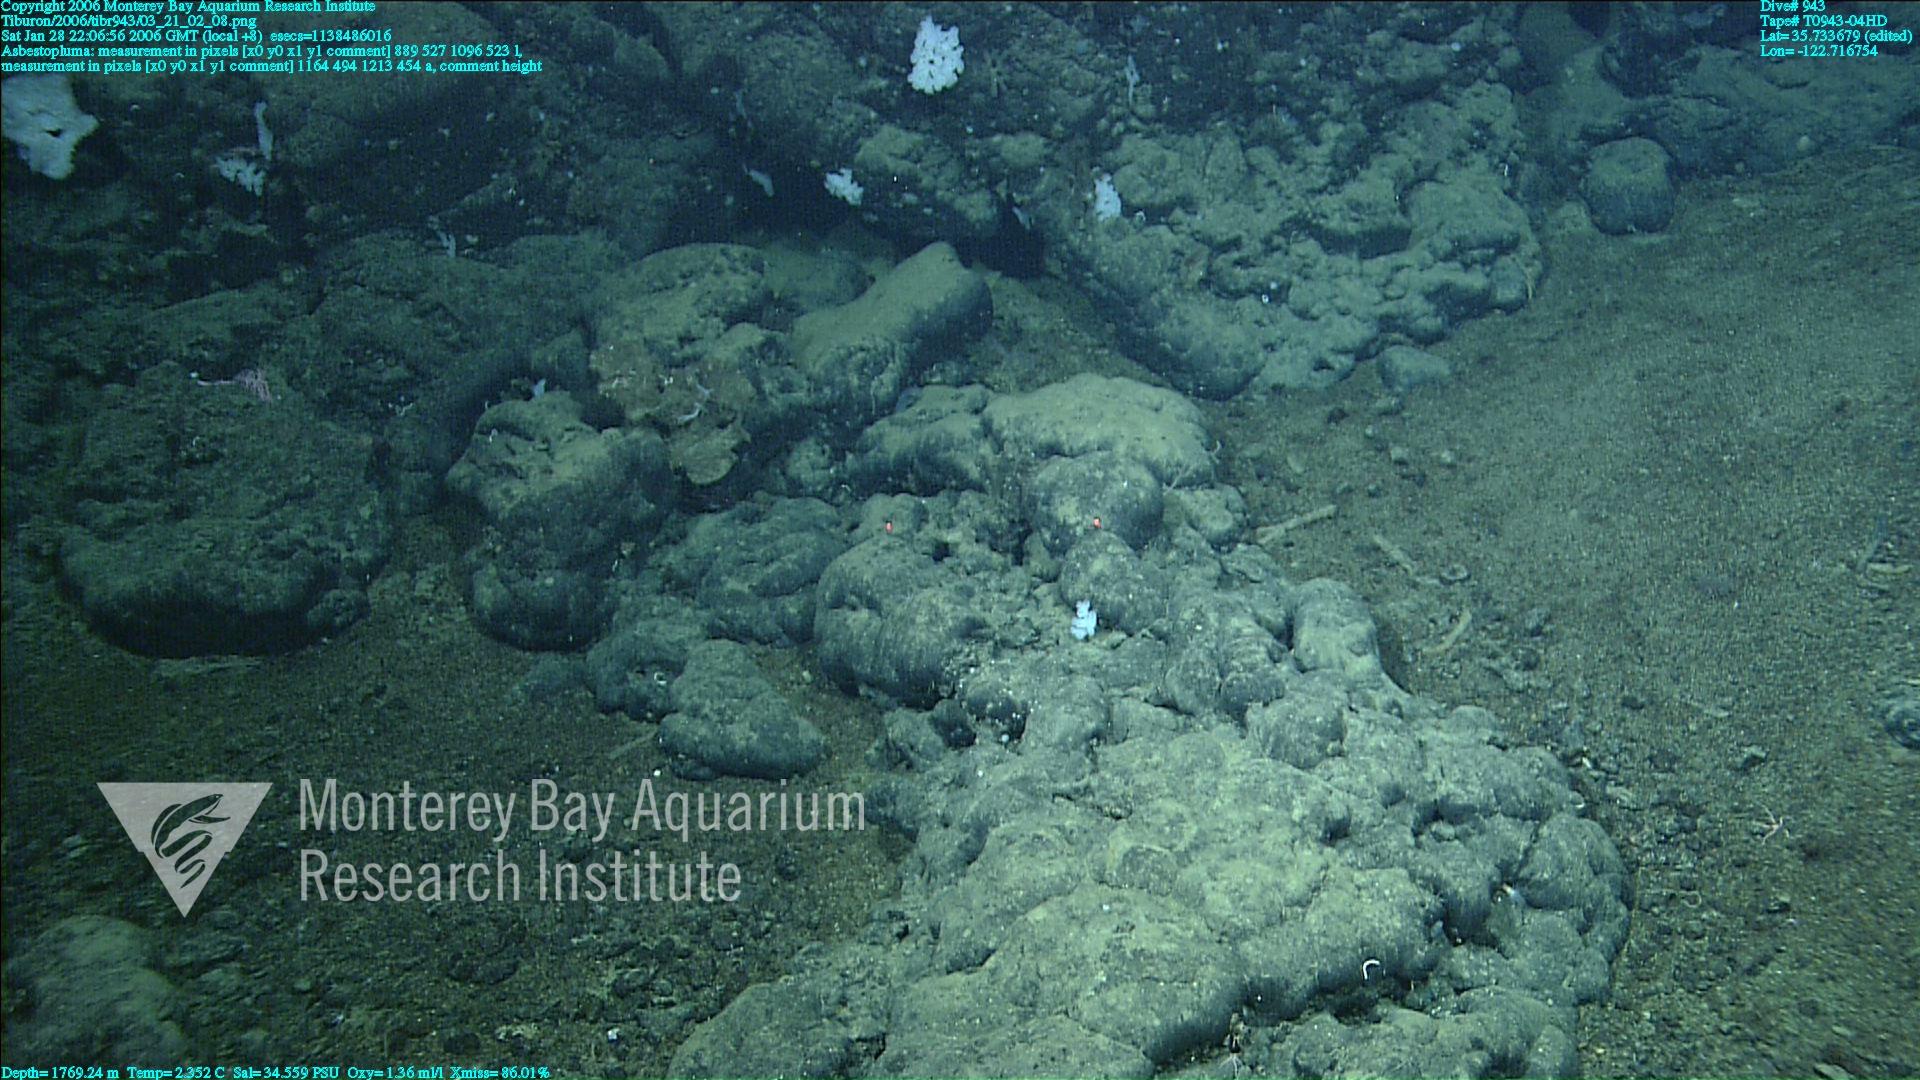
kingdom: Animalia
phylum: Porifera
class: Demospongiae
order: Poecilosclerida
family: Cladorhizidae
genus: Asbestopluma
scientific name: Asbestopluma
